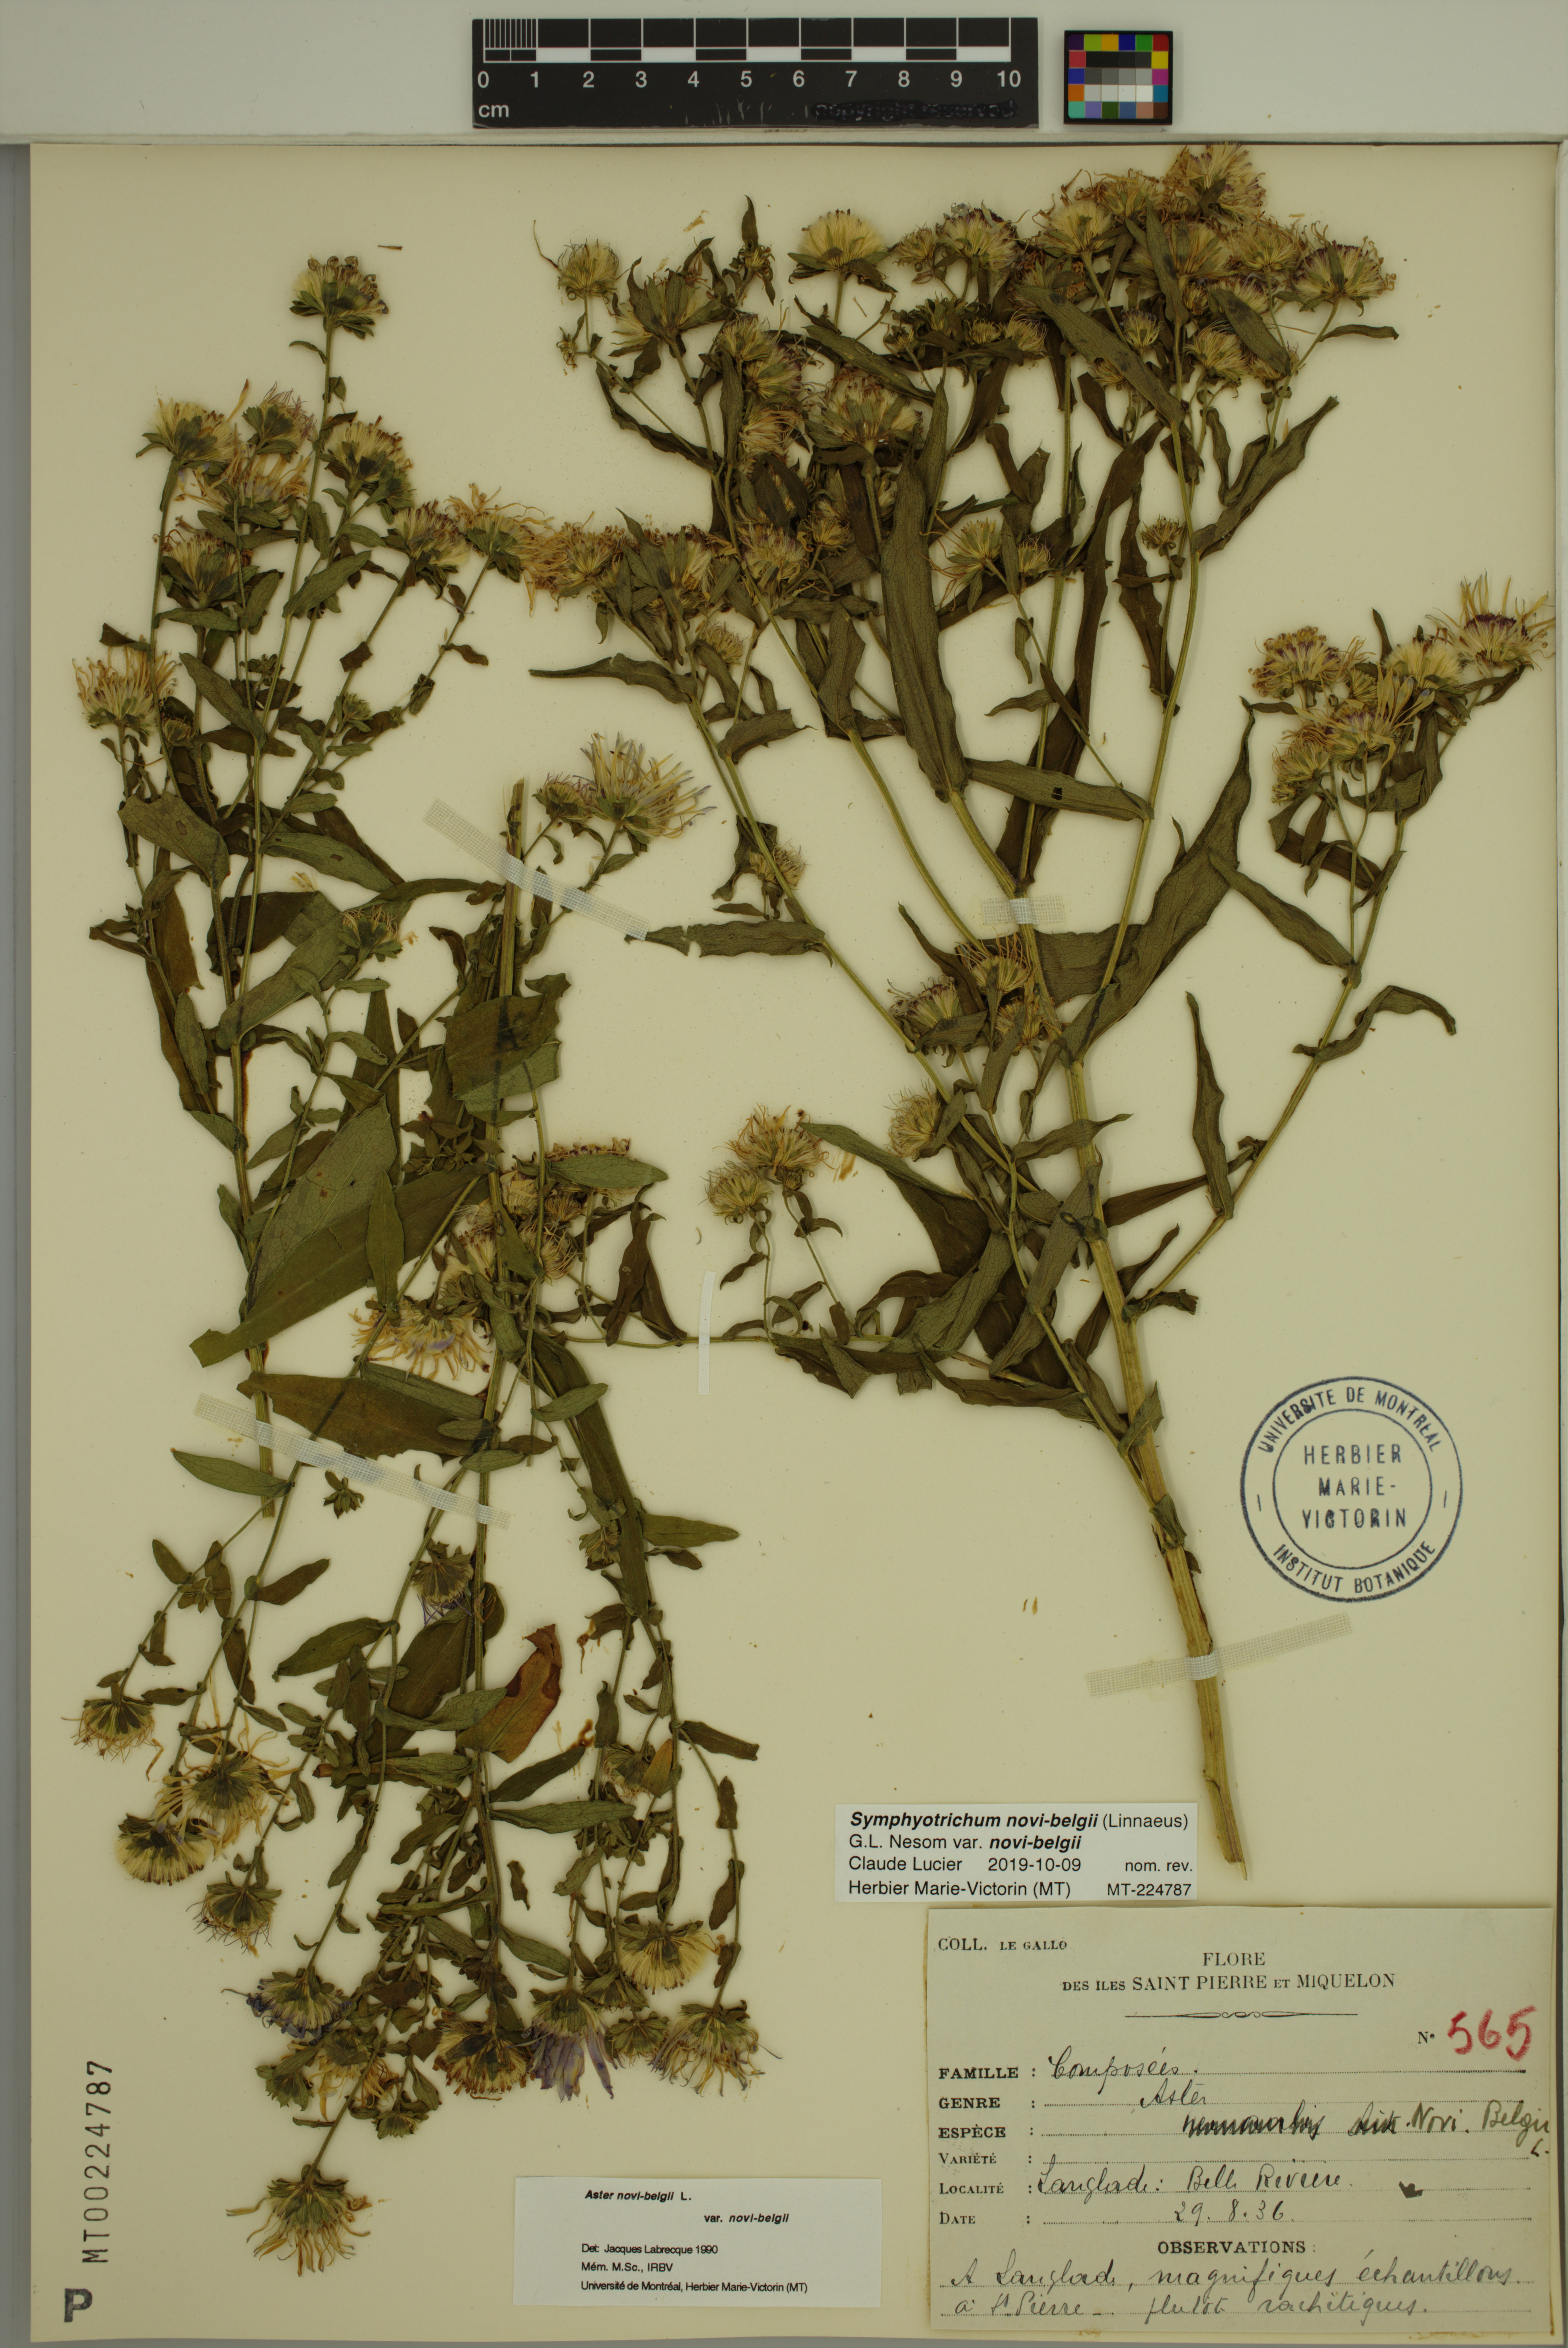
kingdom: Plantae
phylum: Tracheophyta
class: Magnoliopsida
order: Asterales
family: Asteraceae
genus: Symphyotrichum
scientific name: Symphyotrichum novi-belgii
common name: Michaelmas daisy
